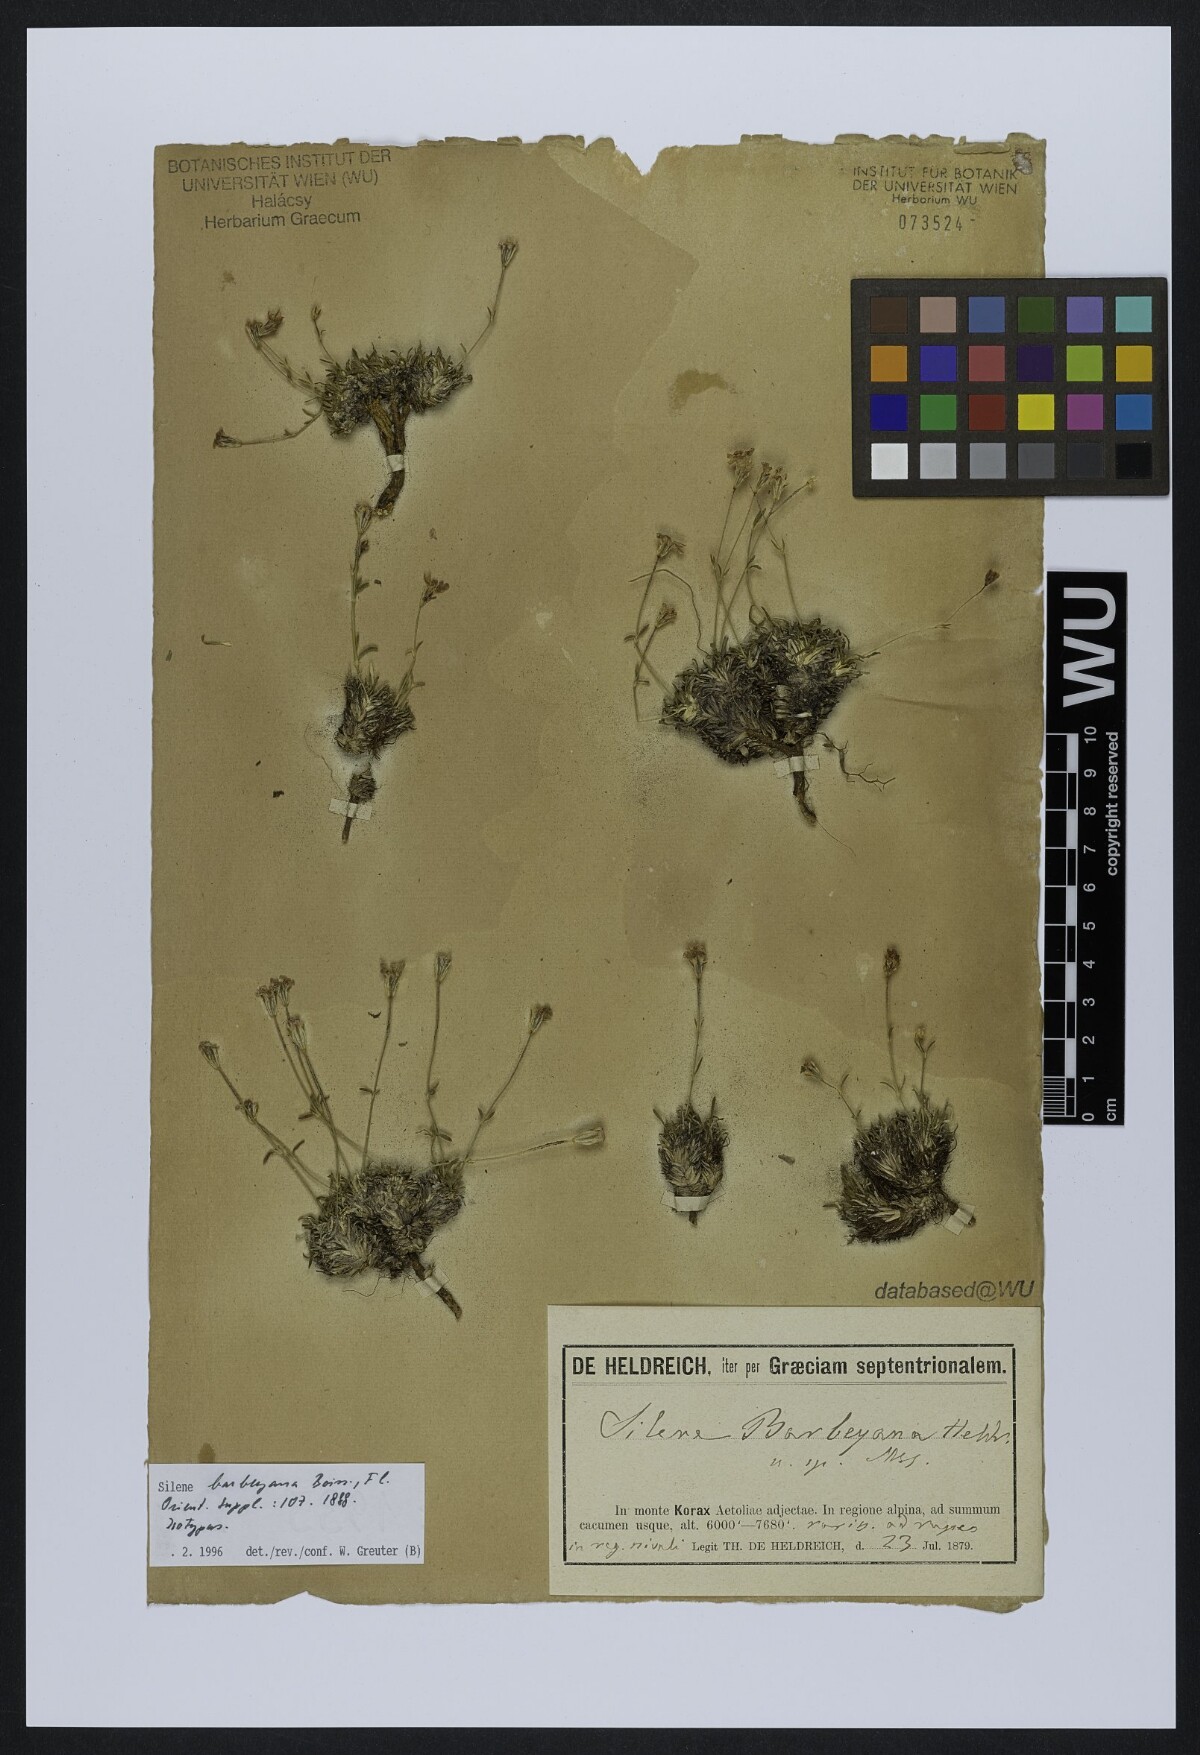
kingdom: Plantae
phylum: Tracheophyta
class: Magnoliopsida
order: Caryophyllales
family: Caryophyllaceae
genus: Silene
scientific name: Silene barbeyana
